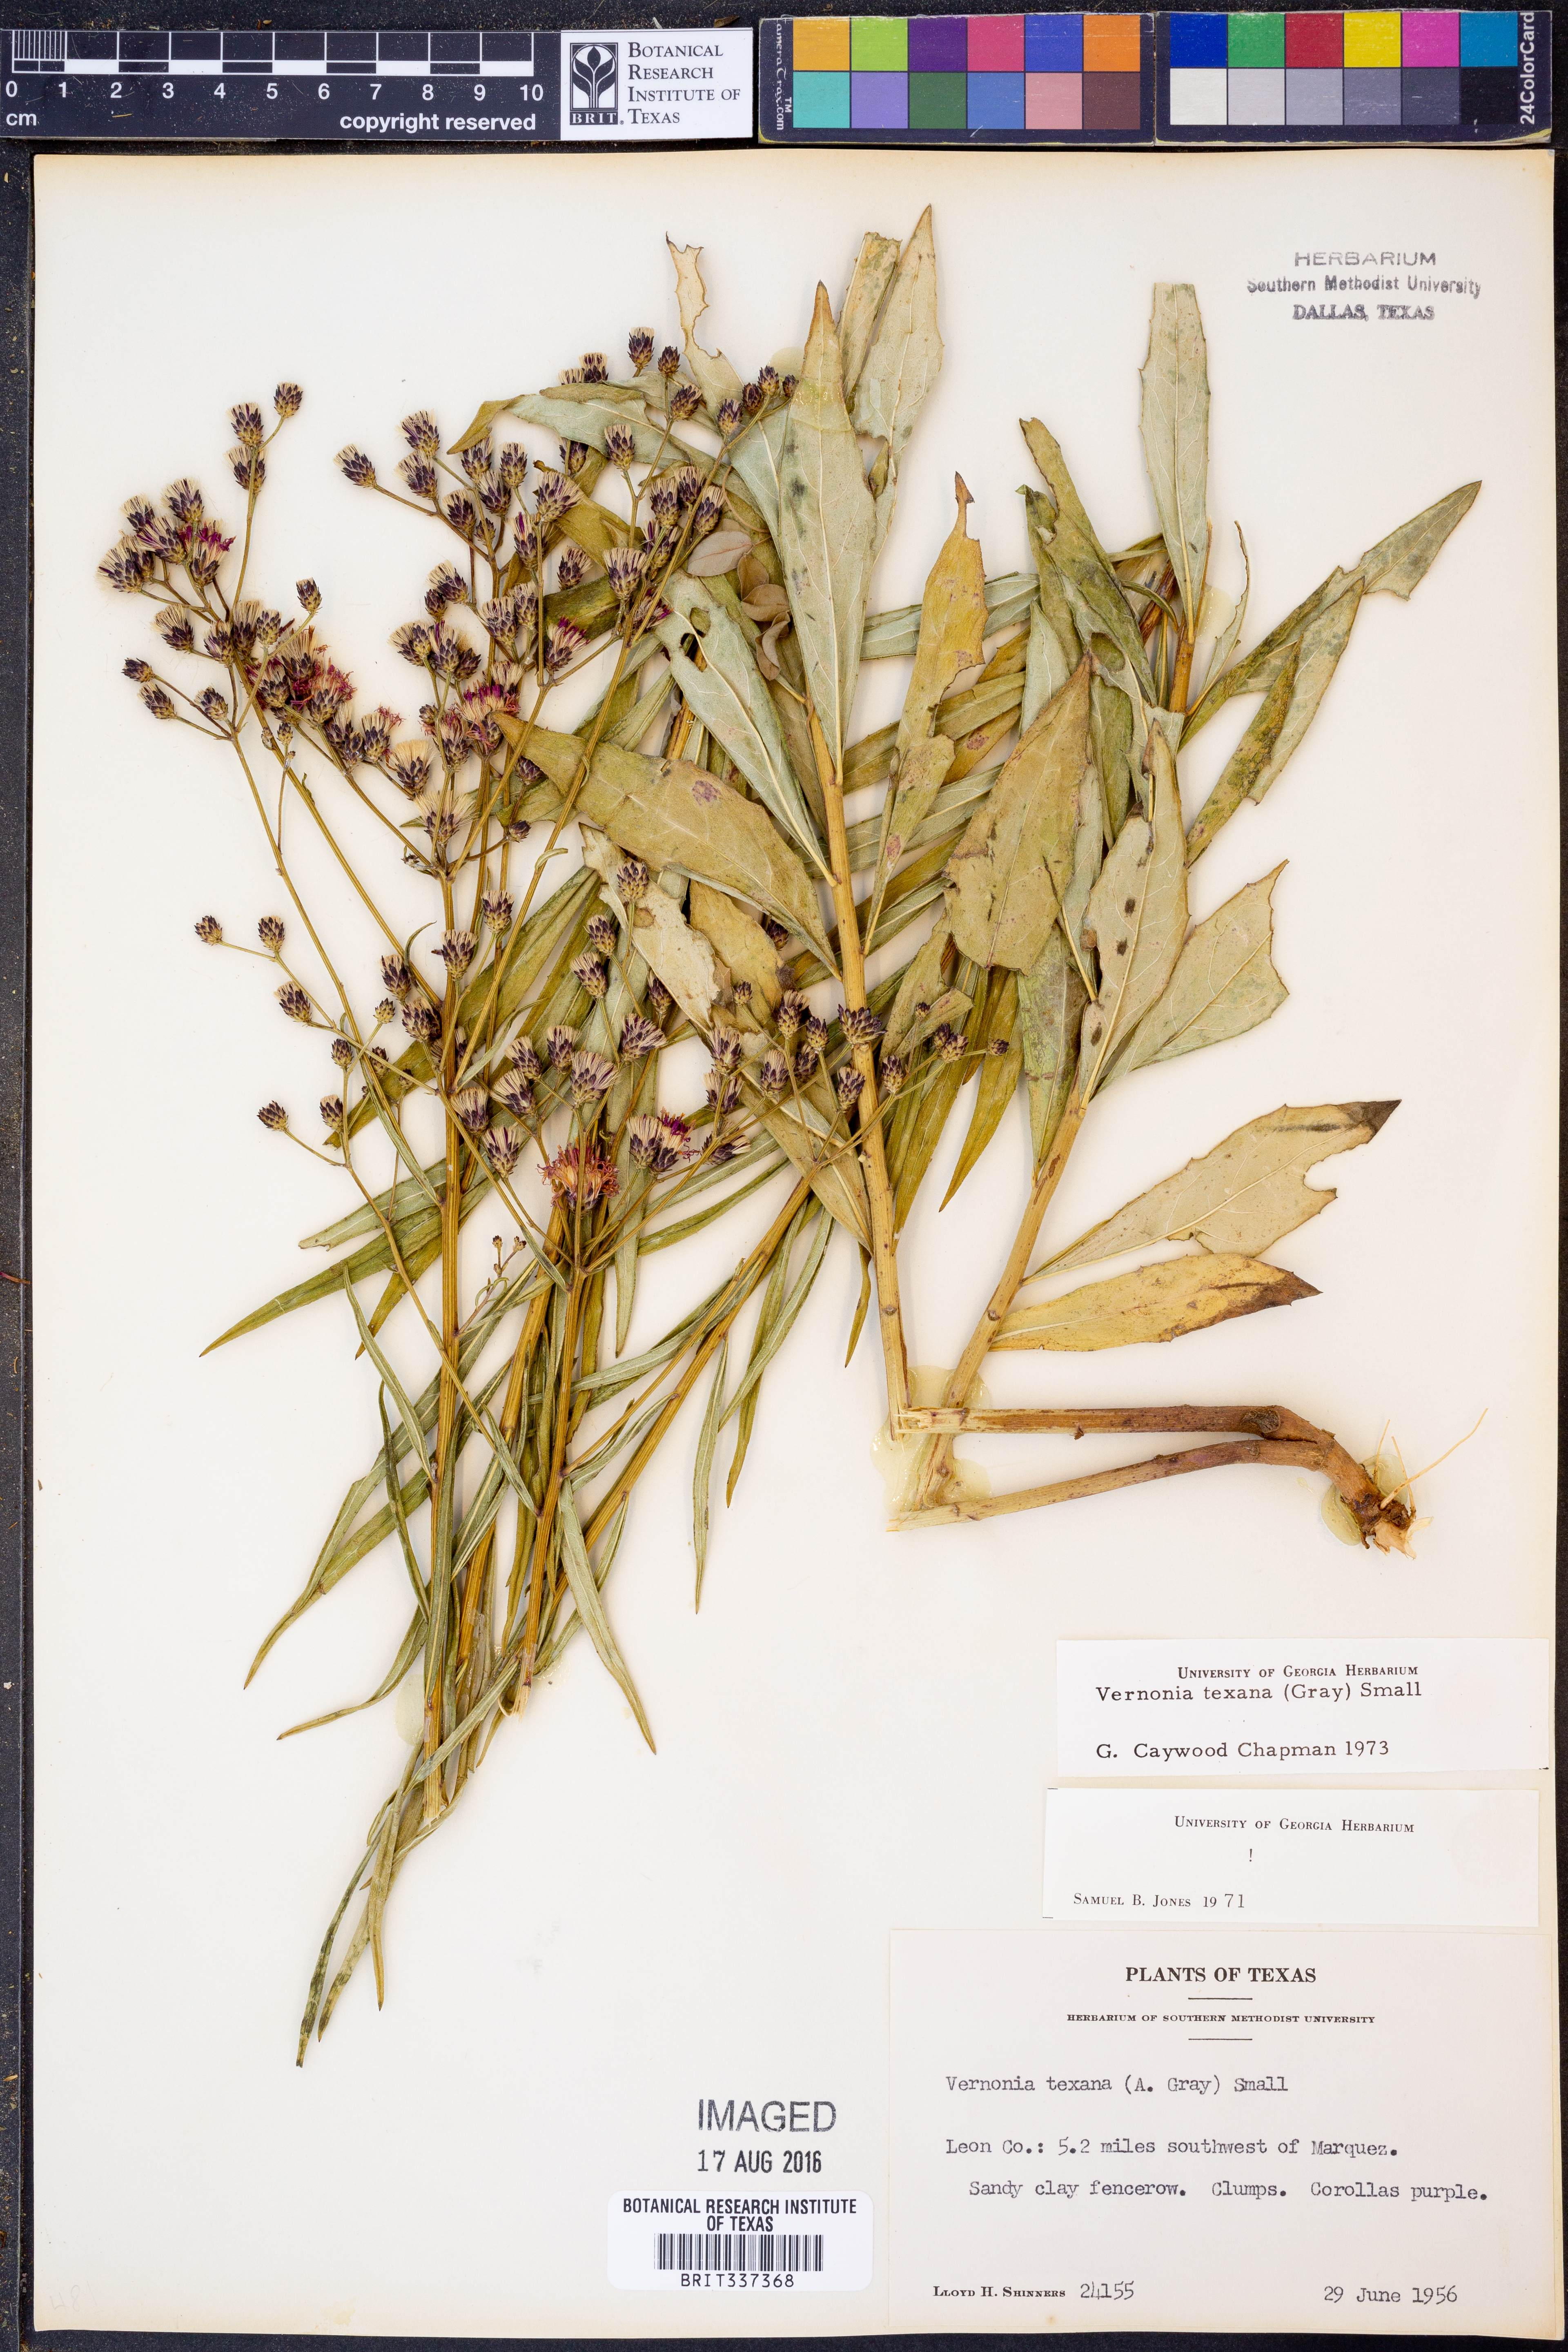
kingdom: Plantae
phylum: Tracheophyta
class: Magnoliopsida
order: Asterales
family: Asteraceae
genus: Vernonia
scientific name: Vernonia texana
